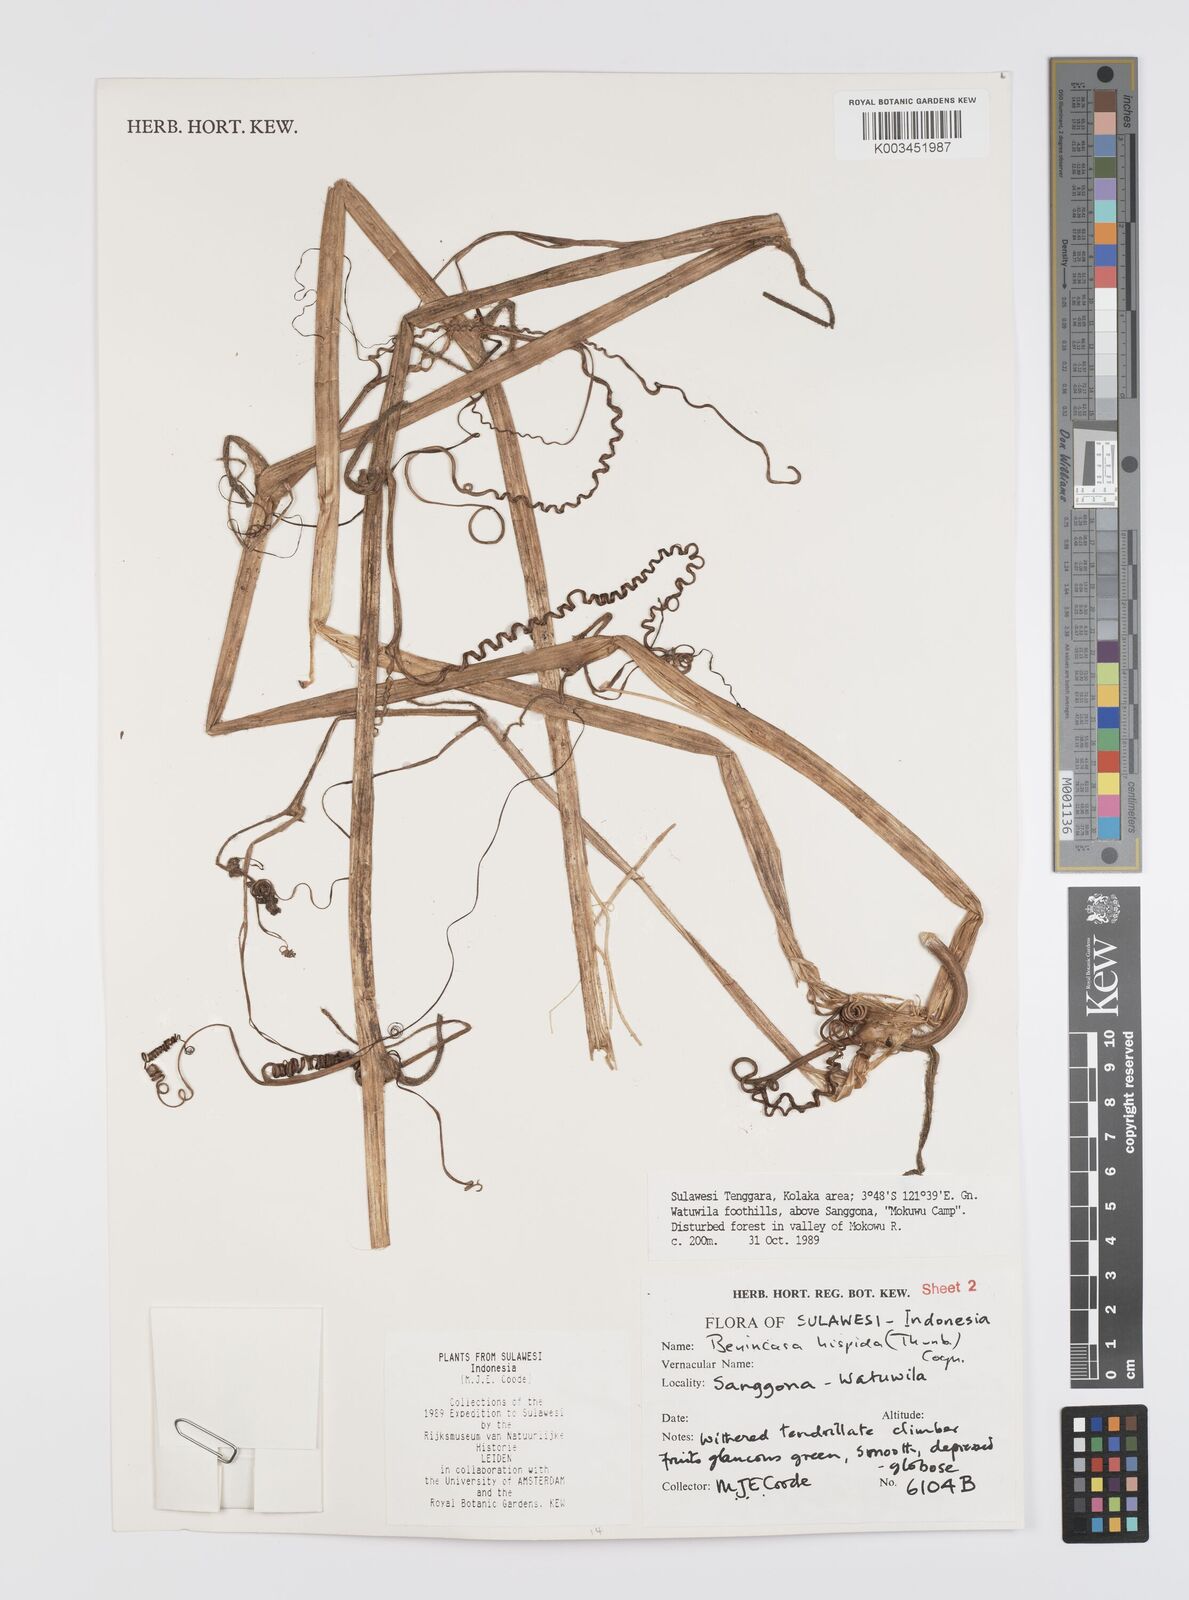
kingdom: Plantae
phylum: Tracheophyta
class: Magnoliopsida
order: Cucurbitales
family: Cucurbitaceae
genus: Benincasa
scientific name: Benincasa hispida
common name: Chinese-watermelon
